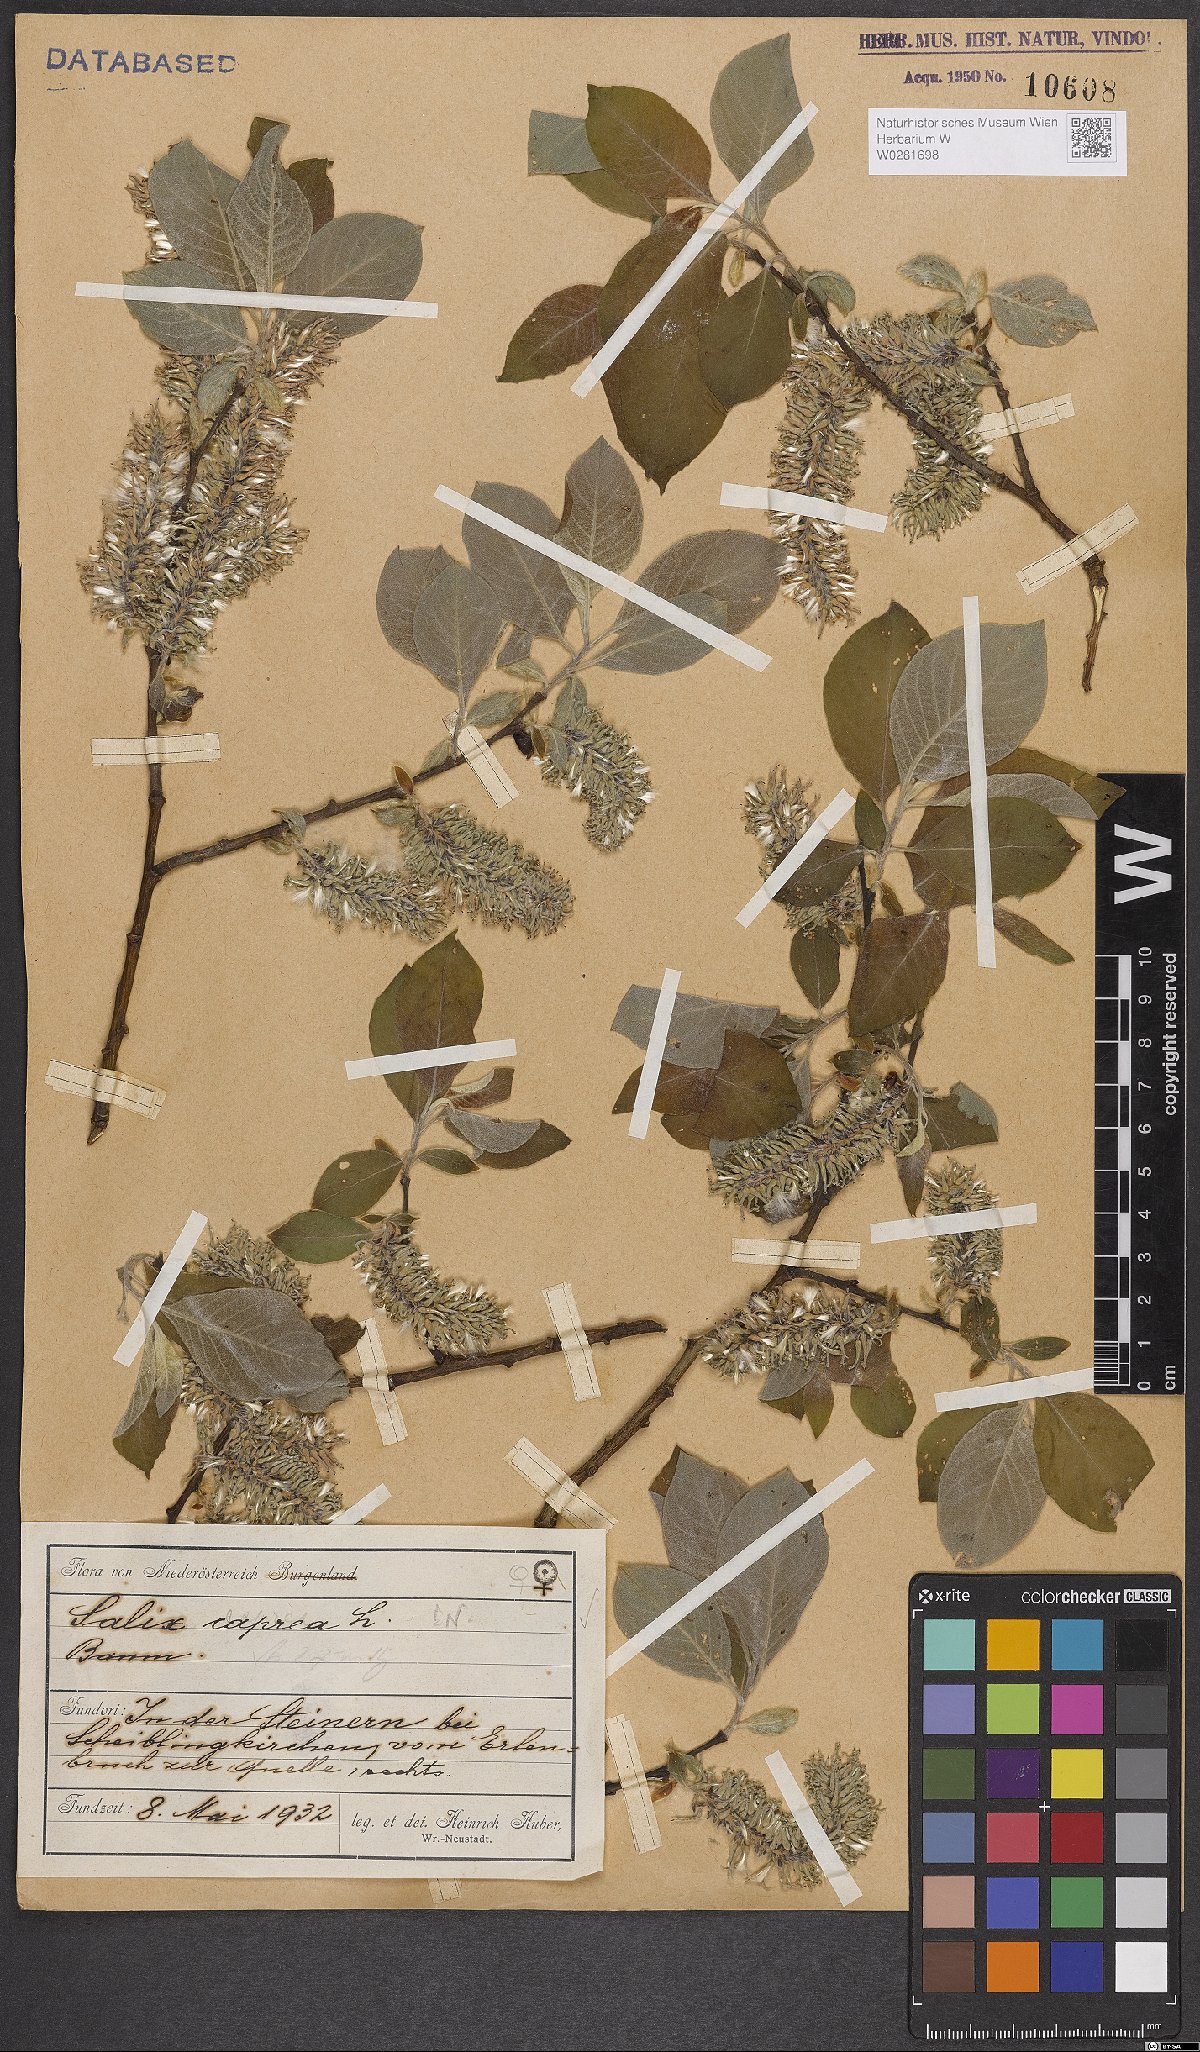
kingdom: Plantae
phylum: Tracheophyta
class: Magnoliopsida
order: Malpighiales
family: Salicaceae
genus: Salix
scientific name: Salix caprea
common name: Goat willow
